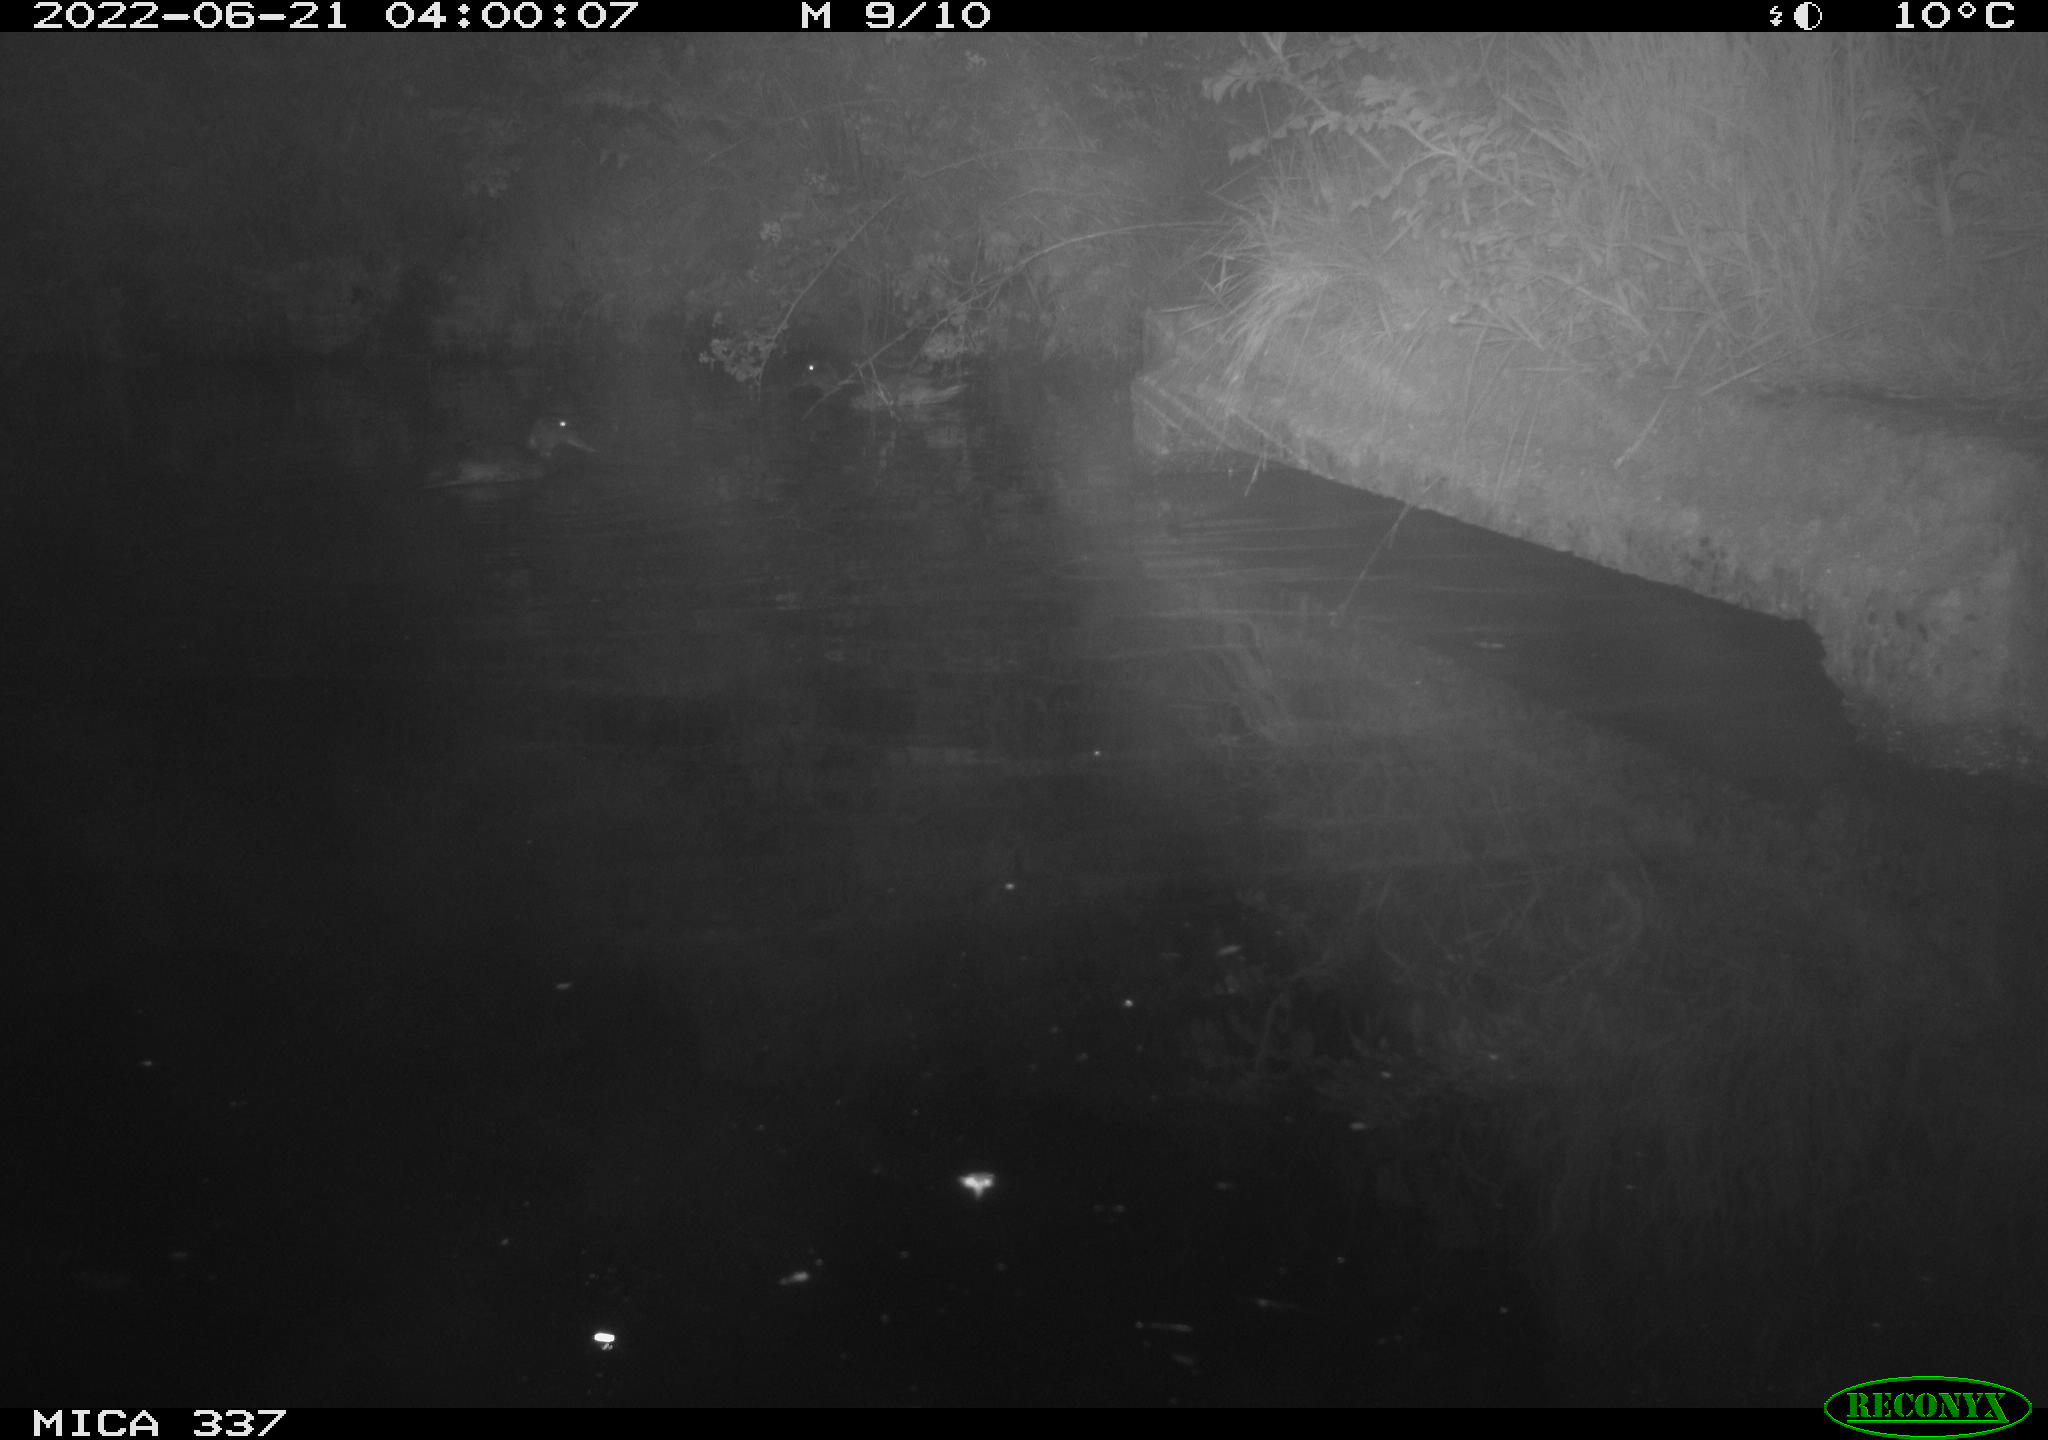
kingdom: Animalia
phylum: Chordata
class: Aves
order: Anseriformes
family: Anatidae
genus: Anas
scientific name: Anas platyrhynchos
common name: Mallard
